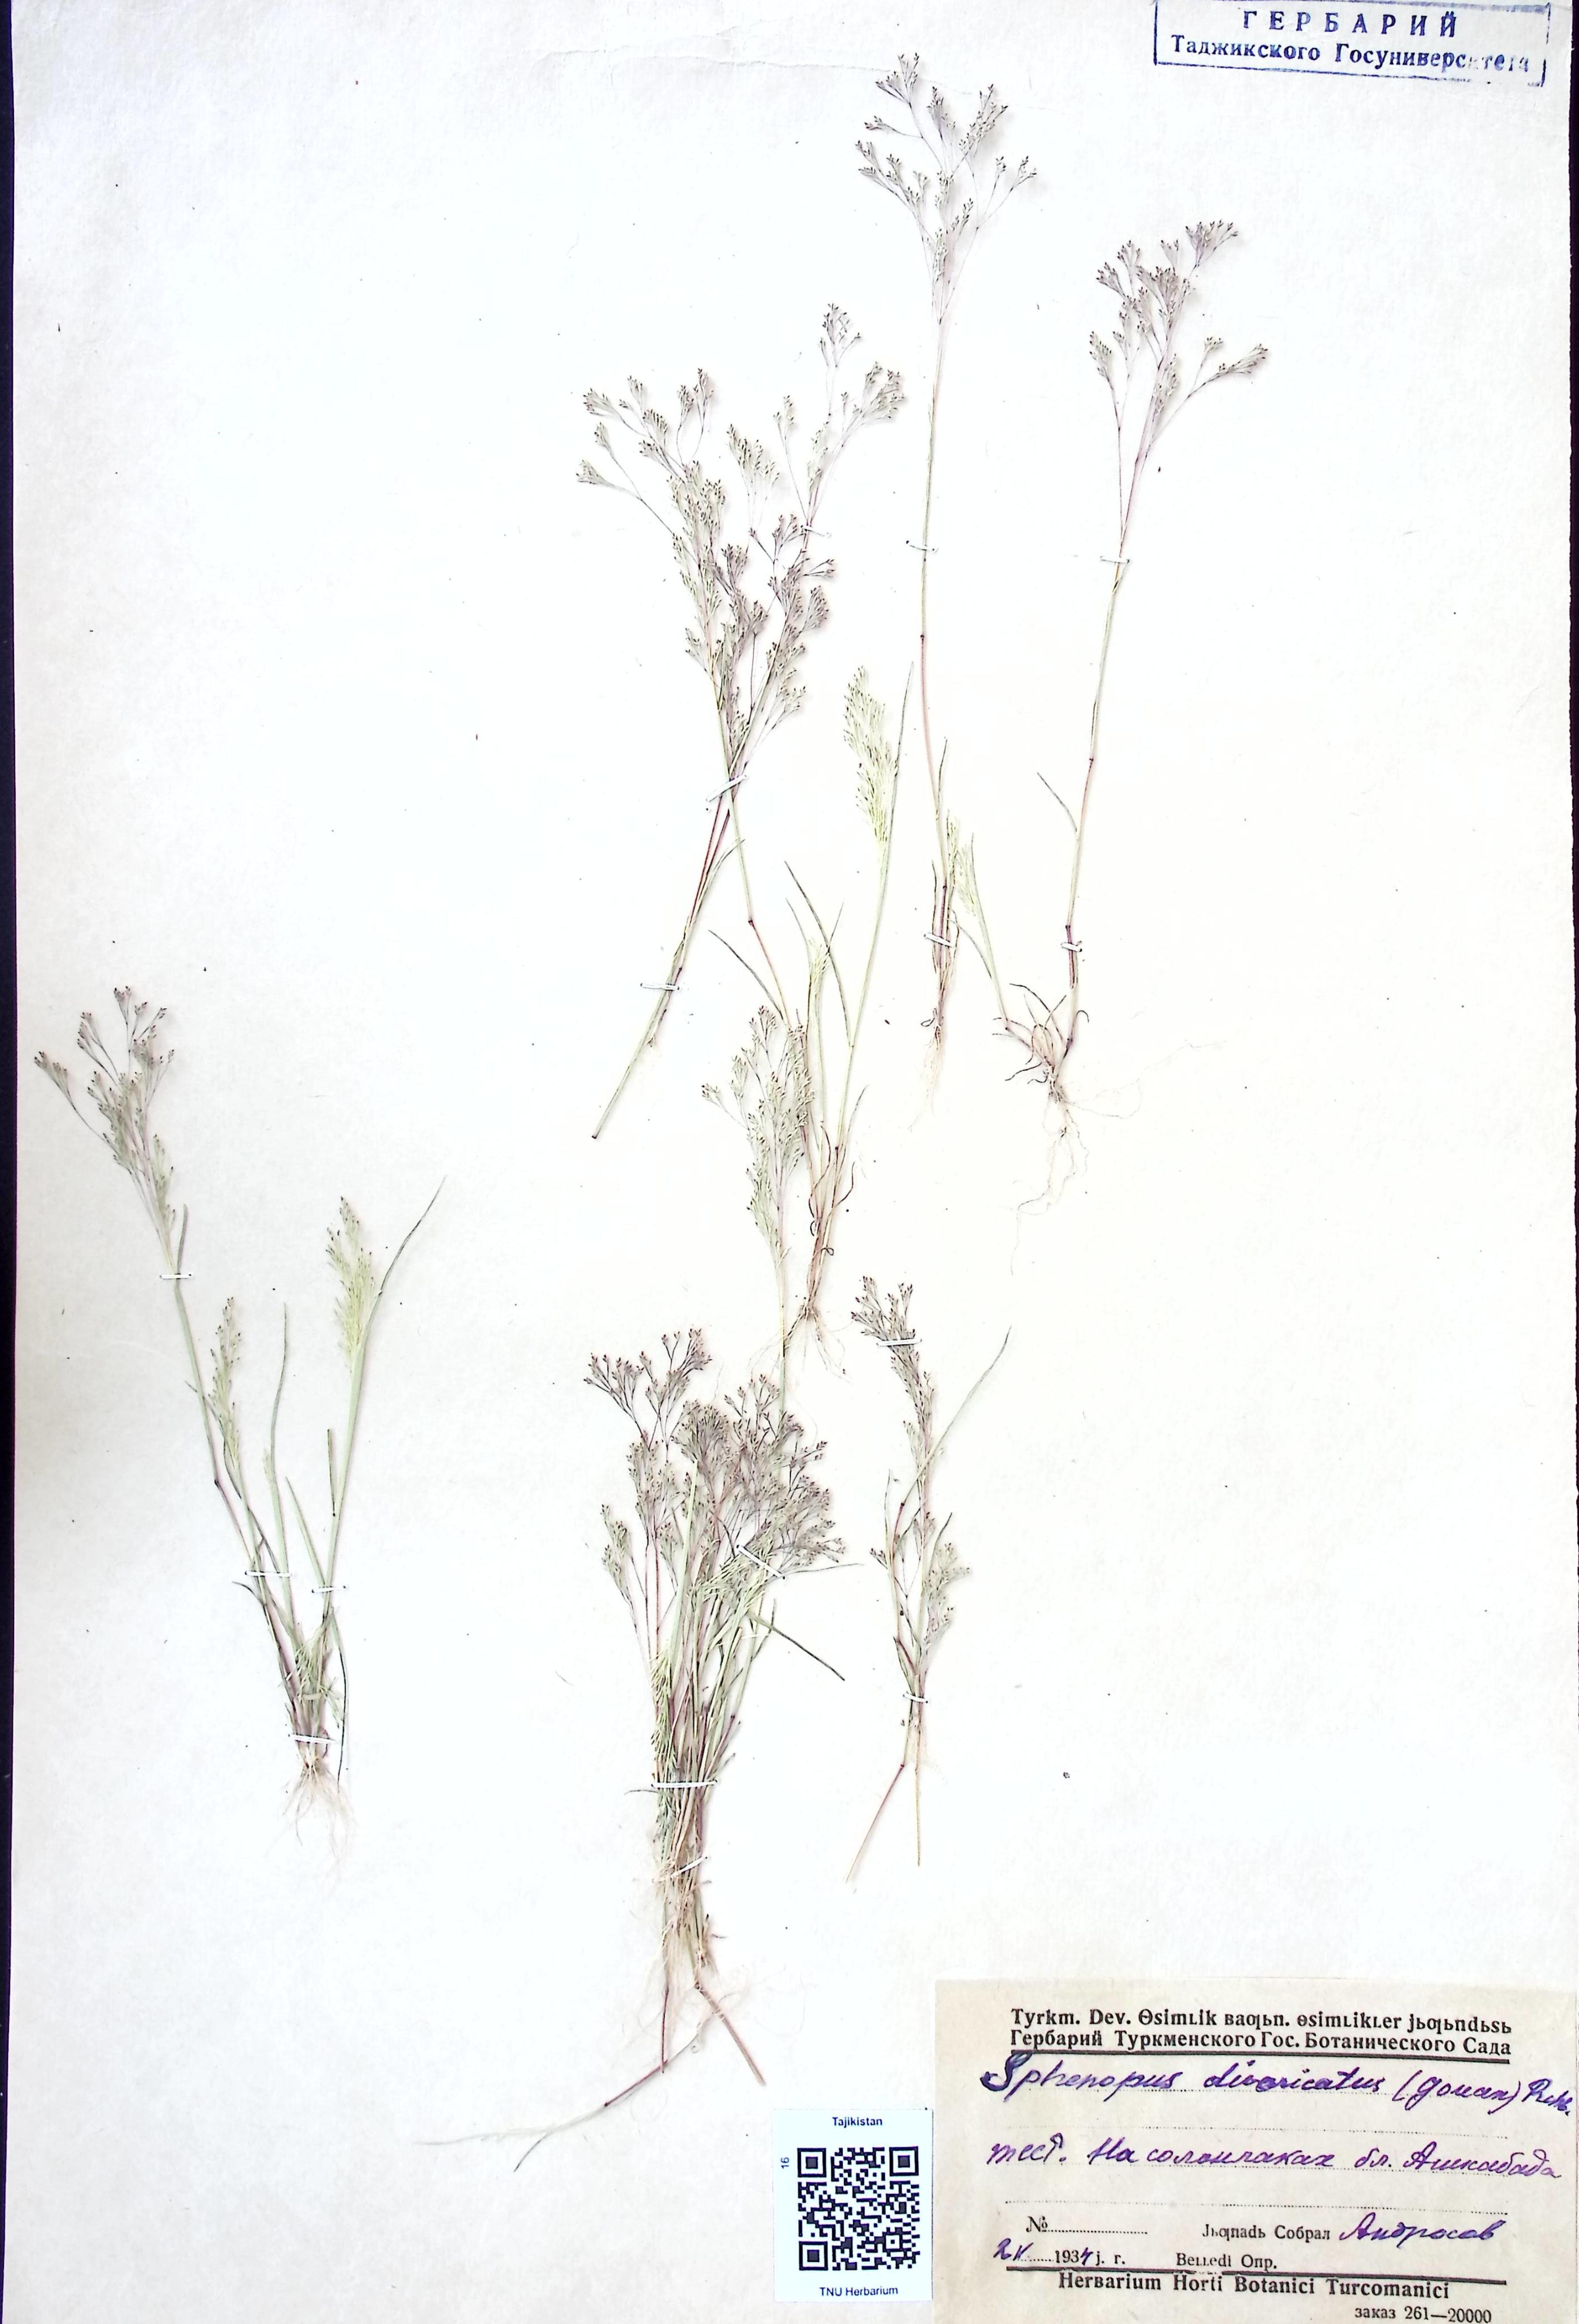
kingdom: Plantae
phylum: Tracheophyta
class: Liliopsida
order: Poales
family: Poaceae
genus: Sphenopus
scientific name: Sphenopus divaricatus
